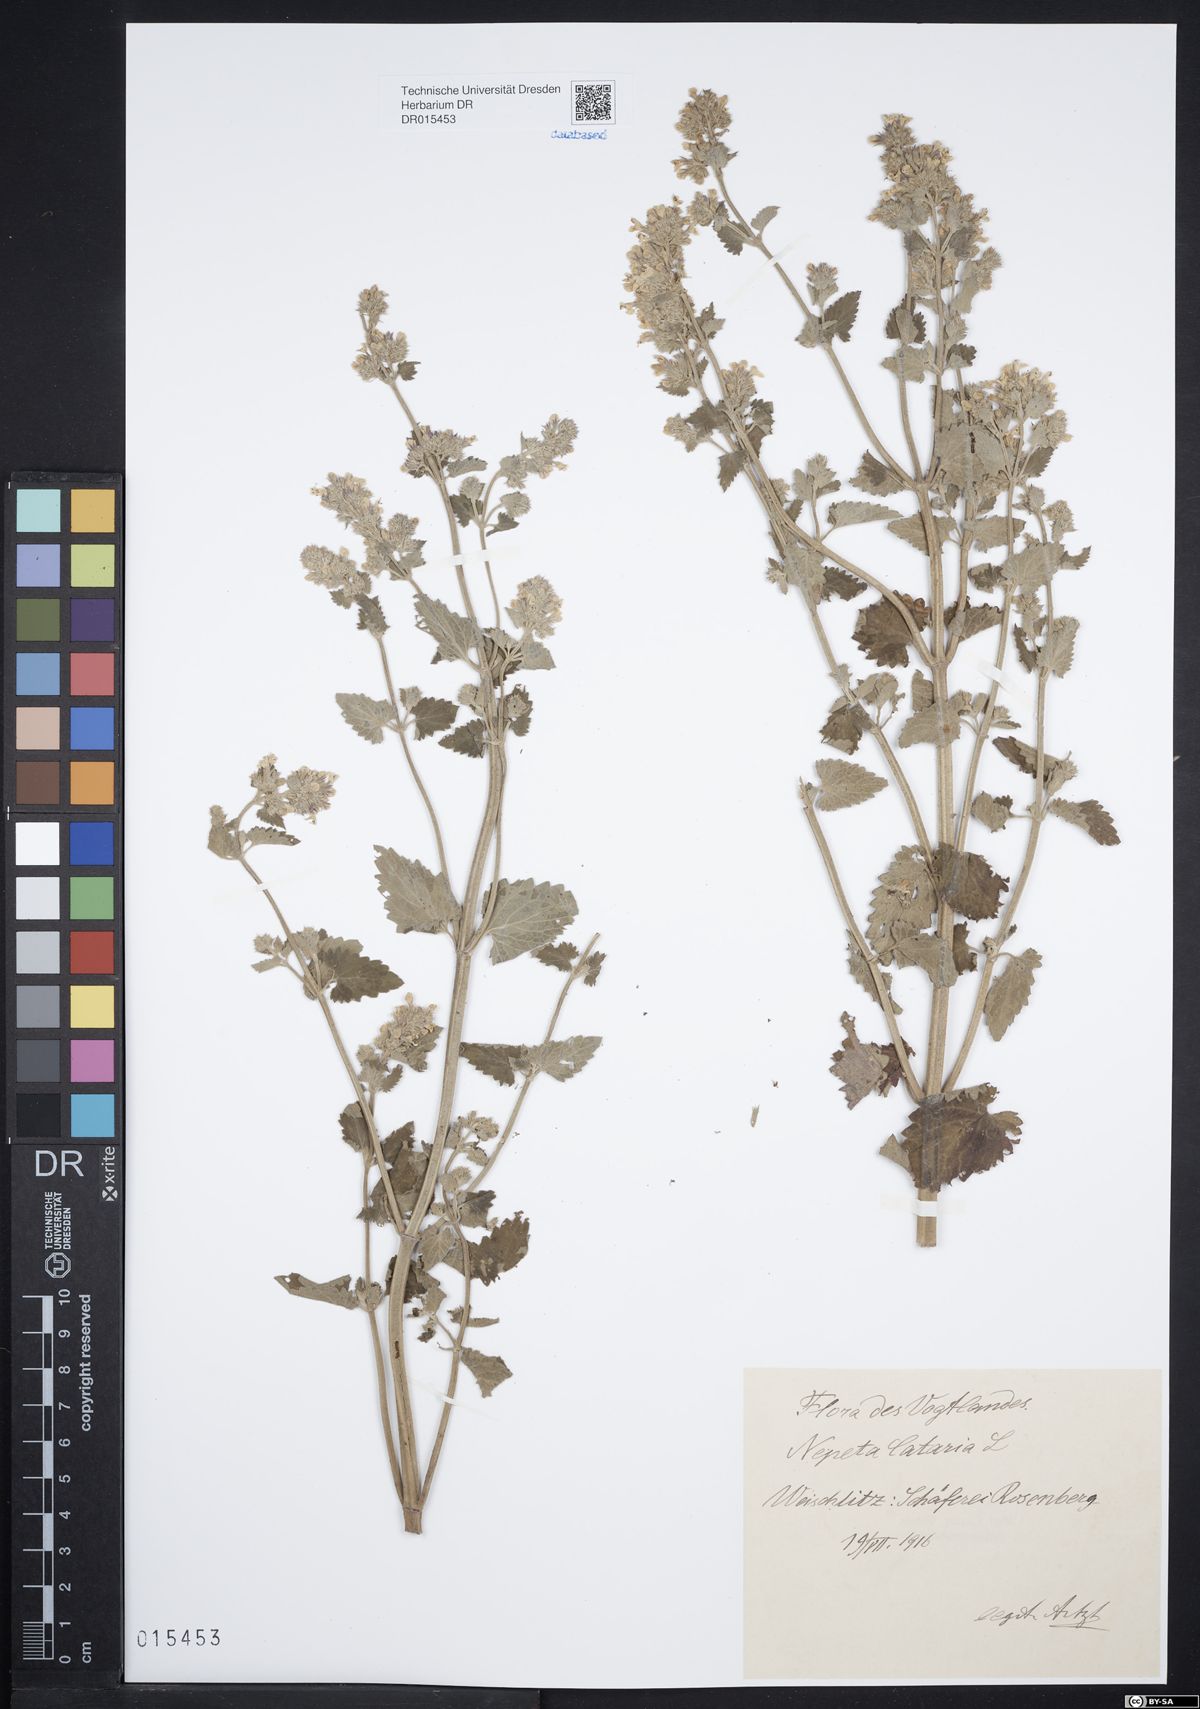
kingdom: Plantae
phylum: Tracheophyta
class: Magnoliopsida
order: Lamiales
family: Lamiaceae
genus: Nepeta
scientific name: Nepeta cataria
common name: Catnip
